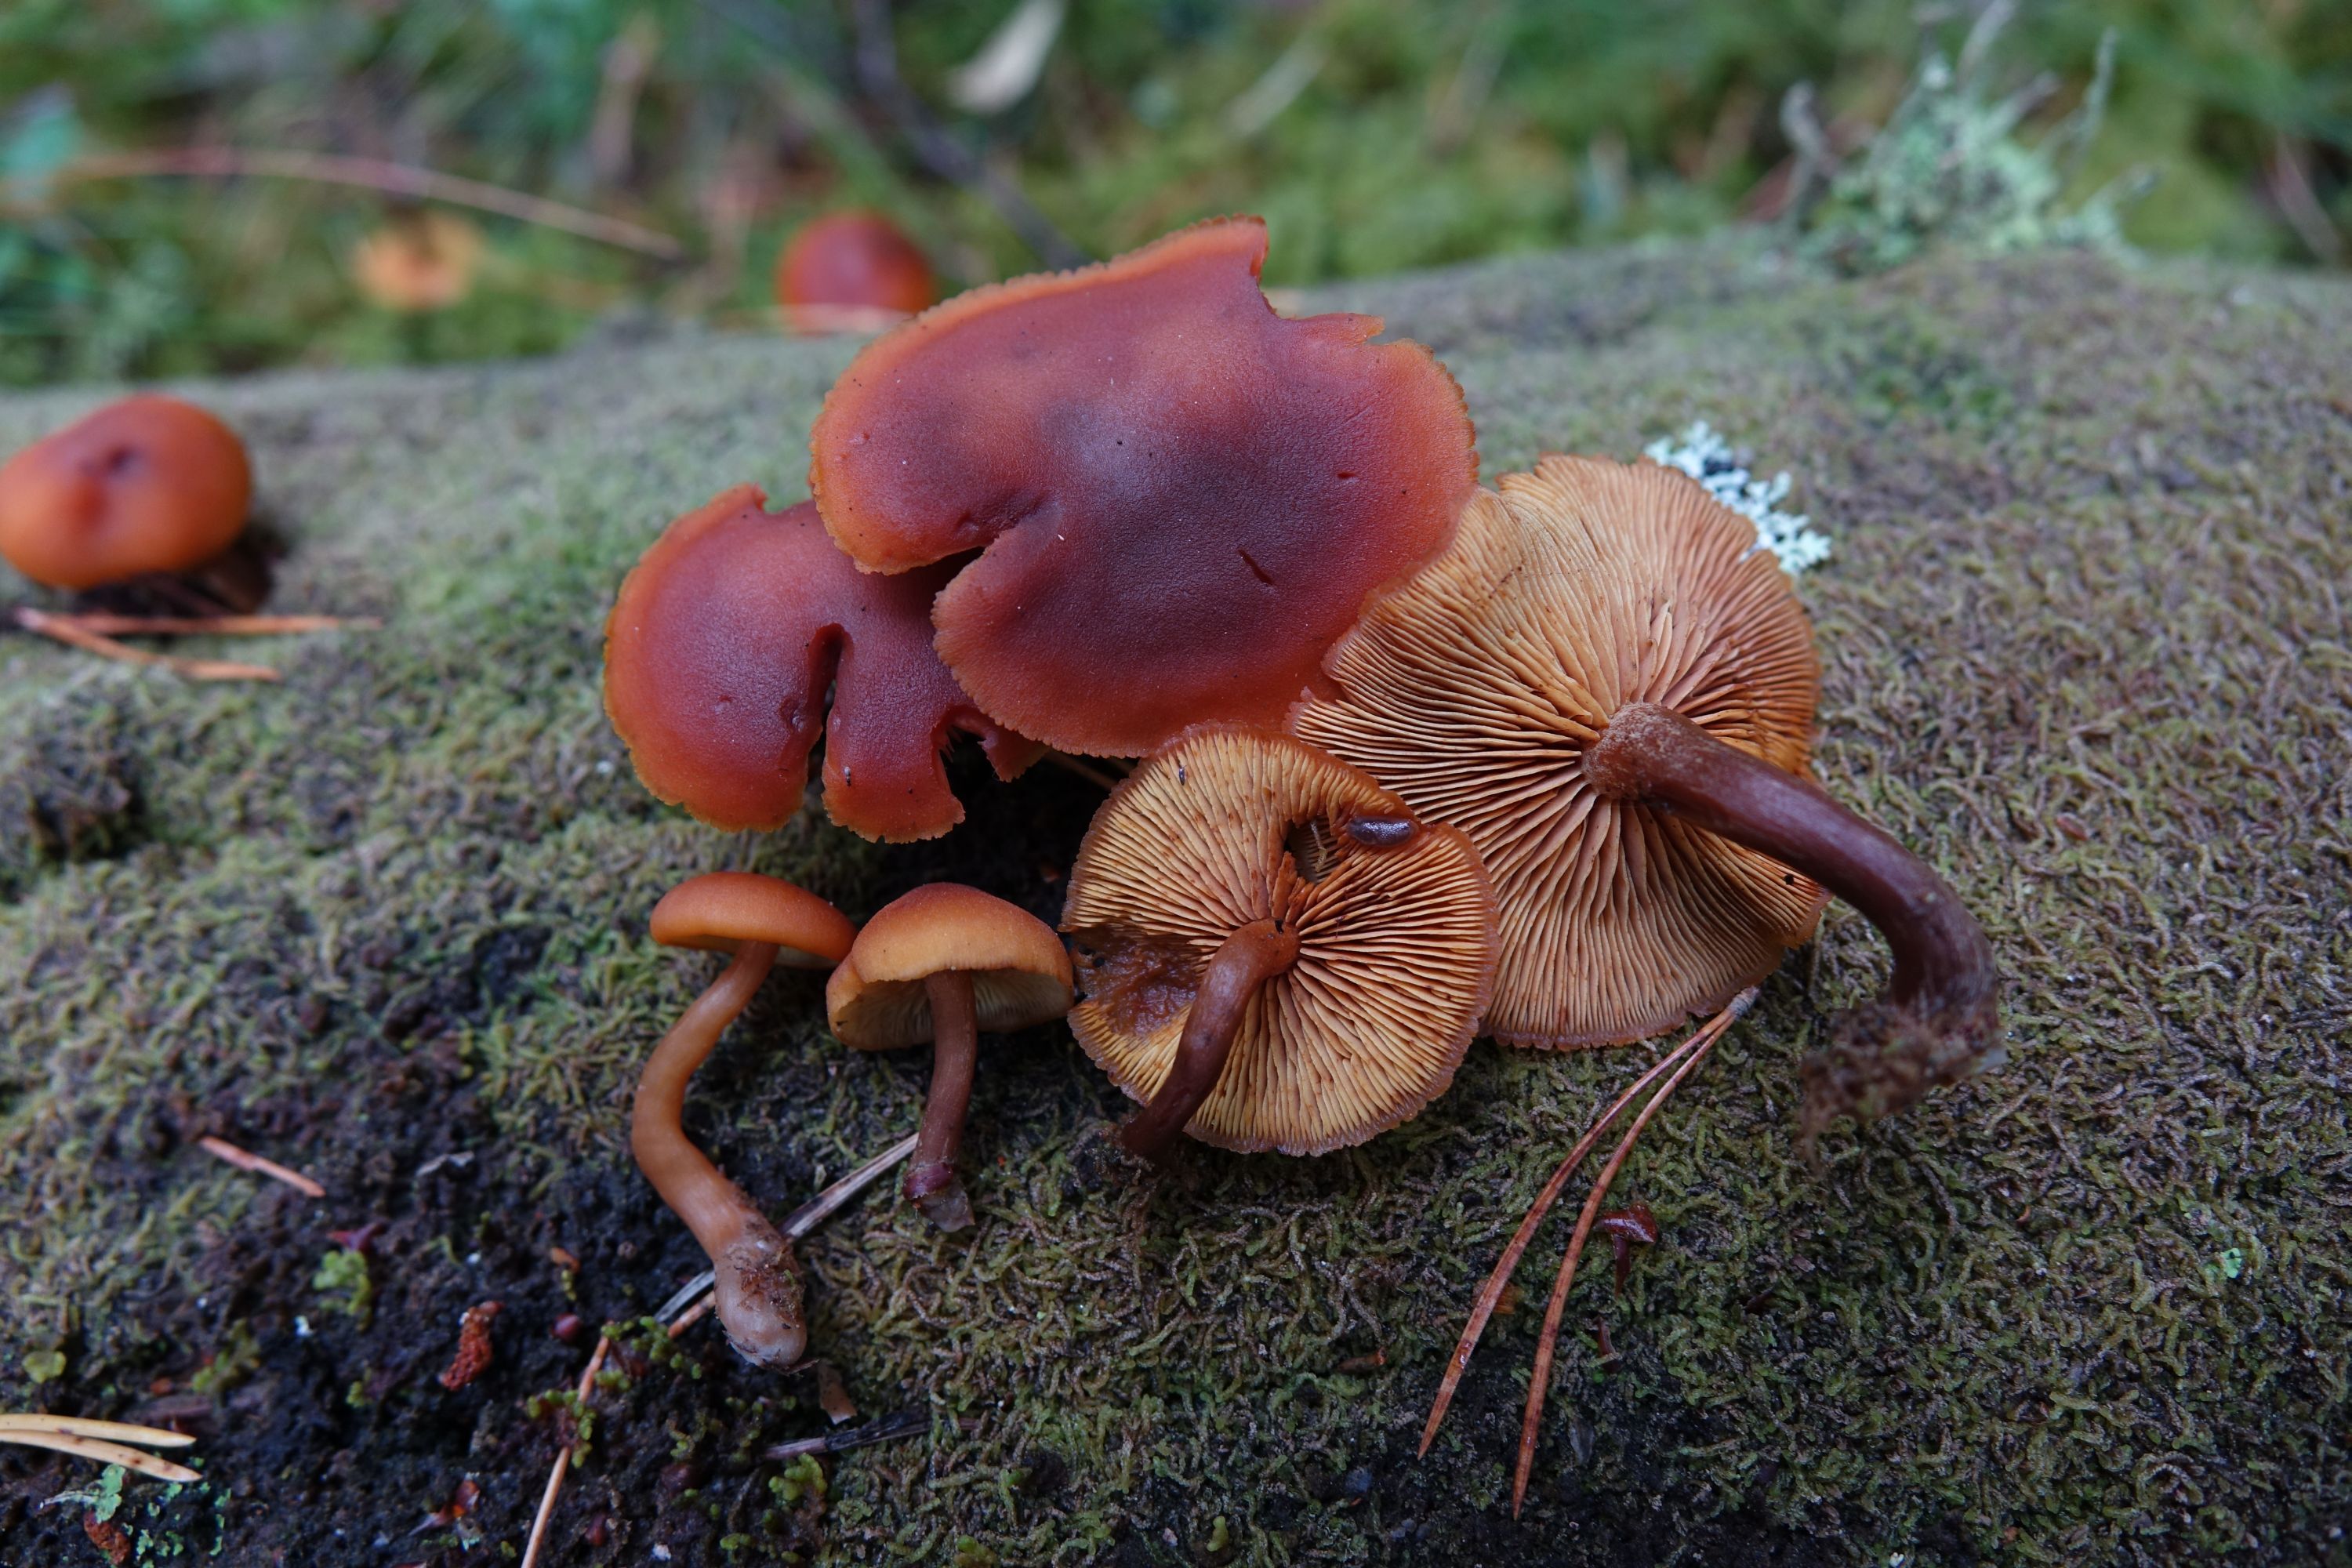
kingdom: Fungi
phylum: Basidiomycota
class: Agaricomycetes
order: Agaricales
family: Hymenogastraceae
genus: Gymnopilus
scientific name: Gymnopilus picreus
